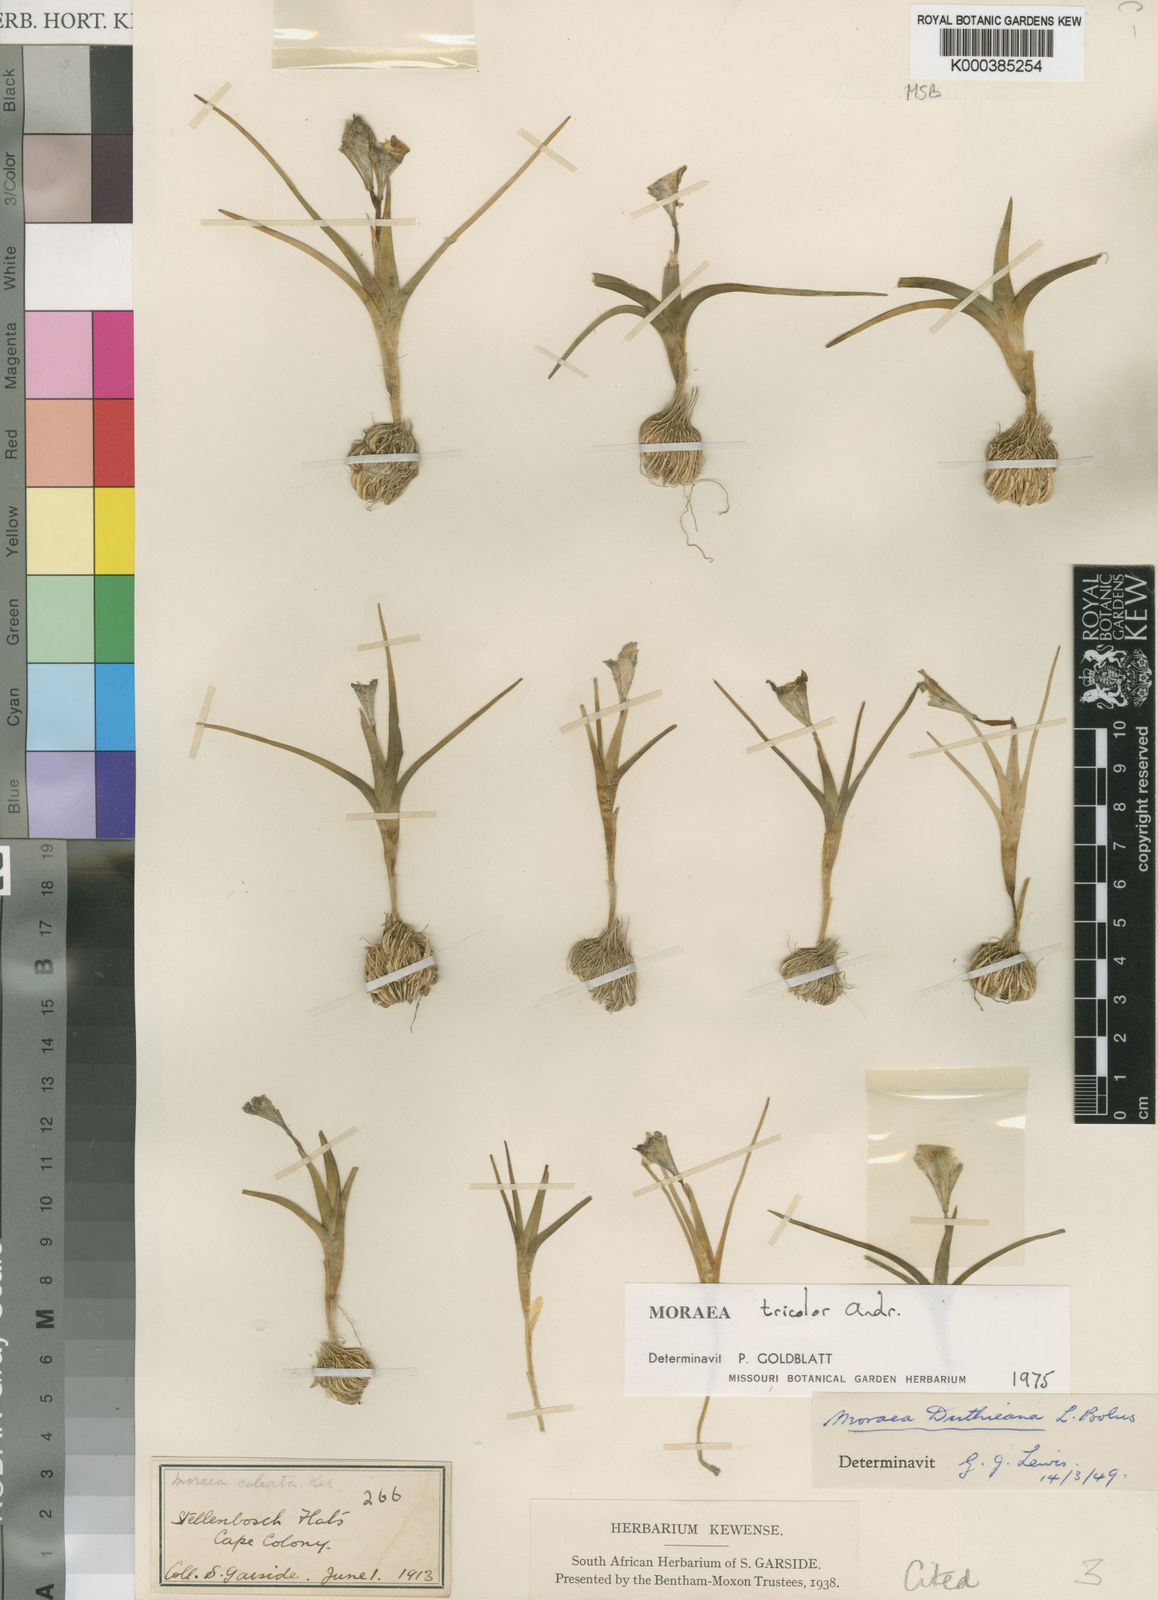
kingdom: Plantae
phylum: Tracheophyta
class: Liliopsida
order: Asparagales
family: Iridaceae
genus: Moraea
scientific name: Moraea tricolor
